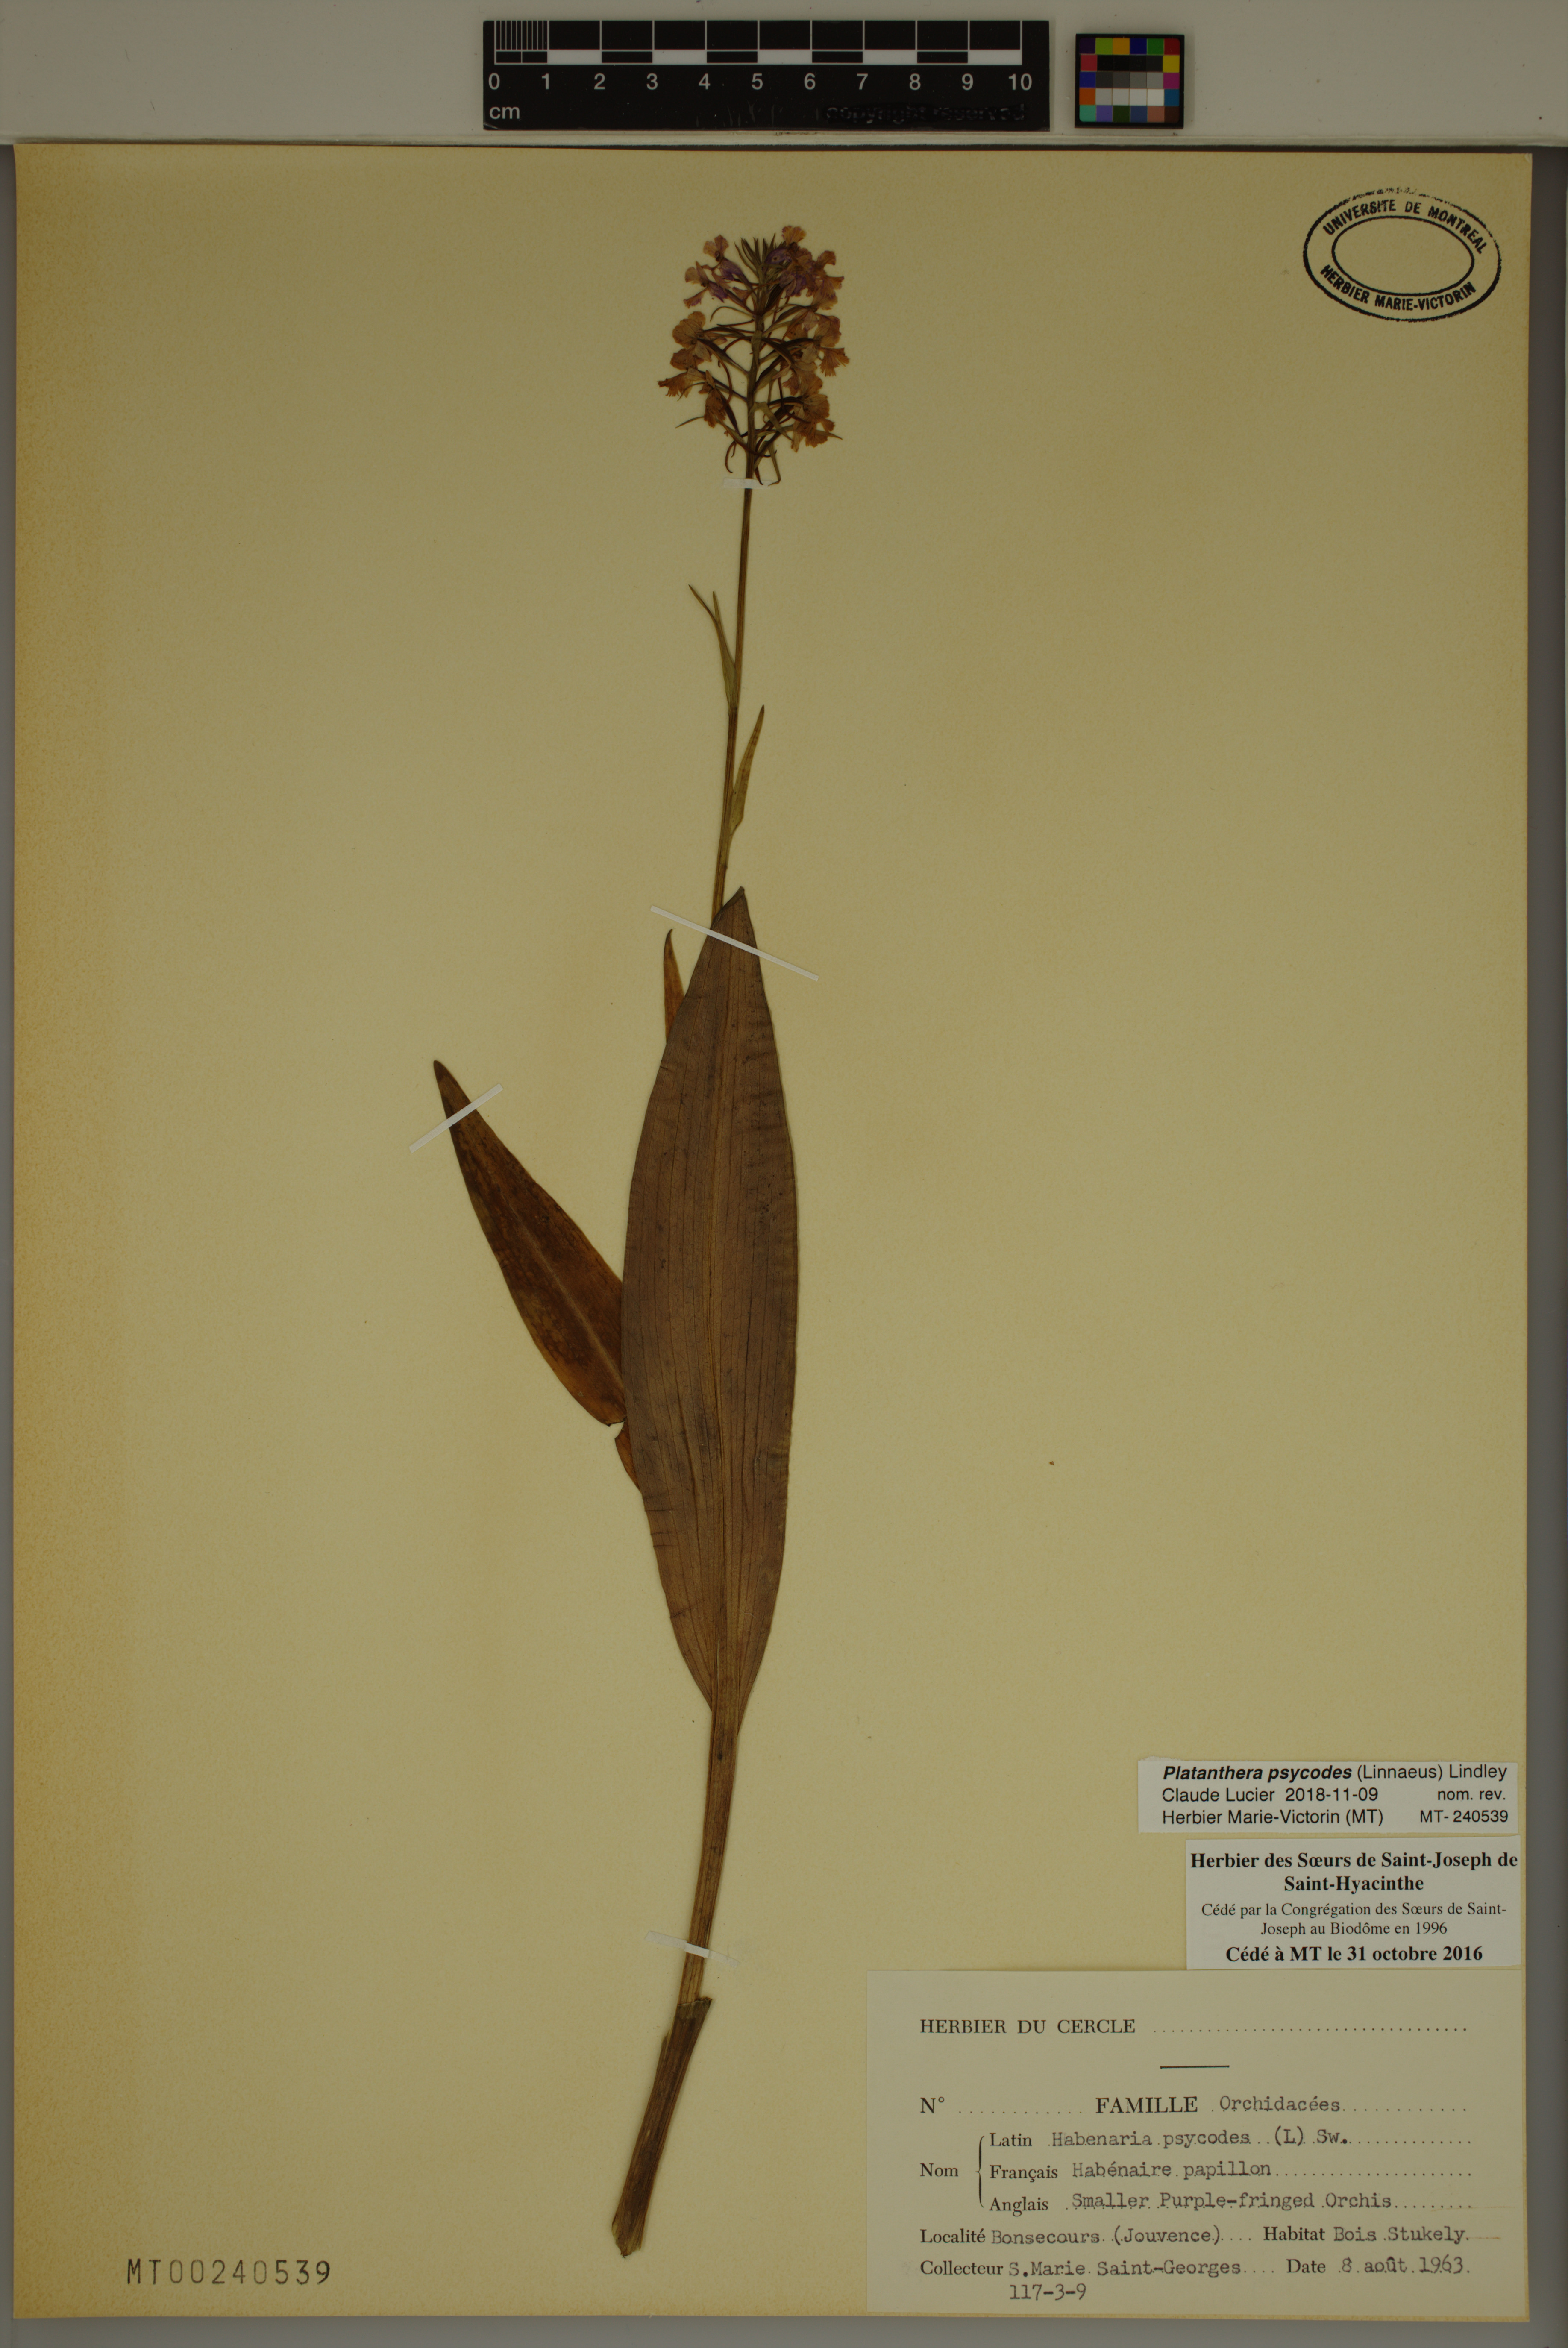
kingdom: Plantae
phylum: Tracheophyta
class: Liliopsida
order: Asparagales
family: Orchidaceae
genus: Platanthera
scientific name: Platanthera psycodes
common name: Lesser purple fringed orchid
